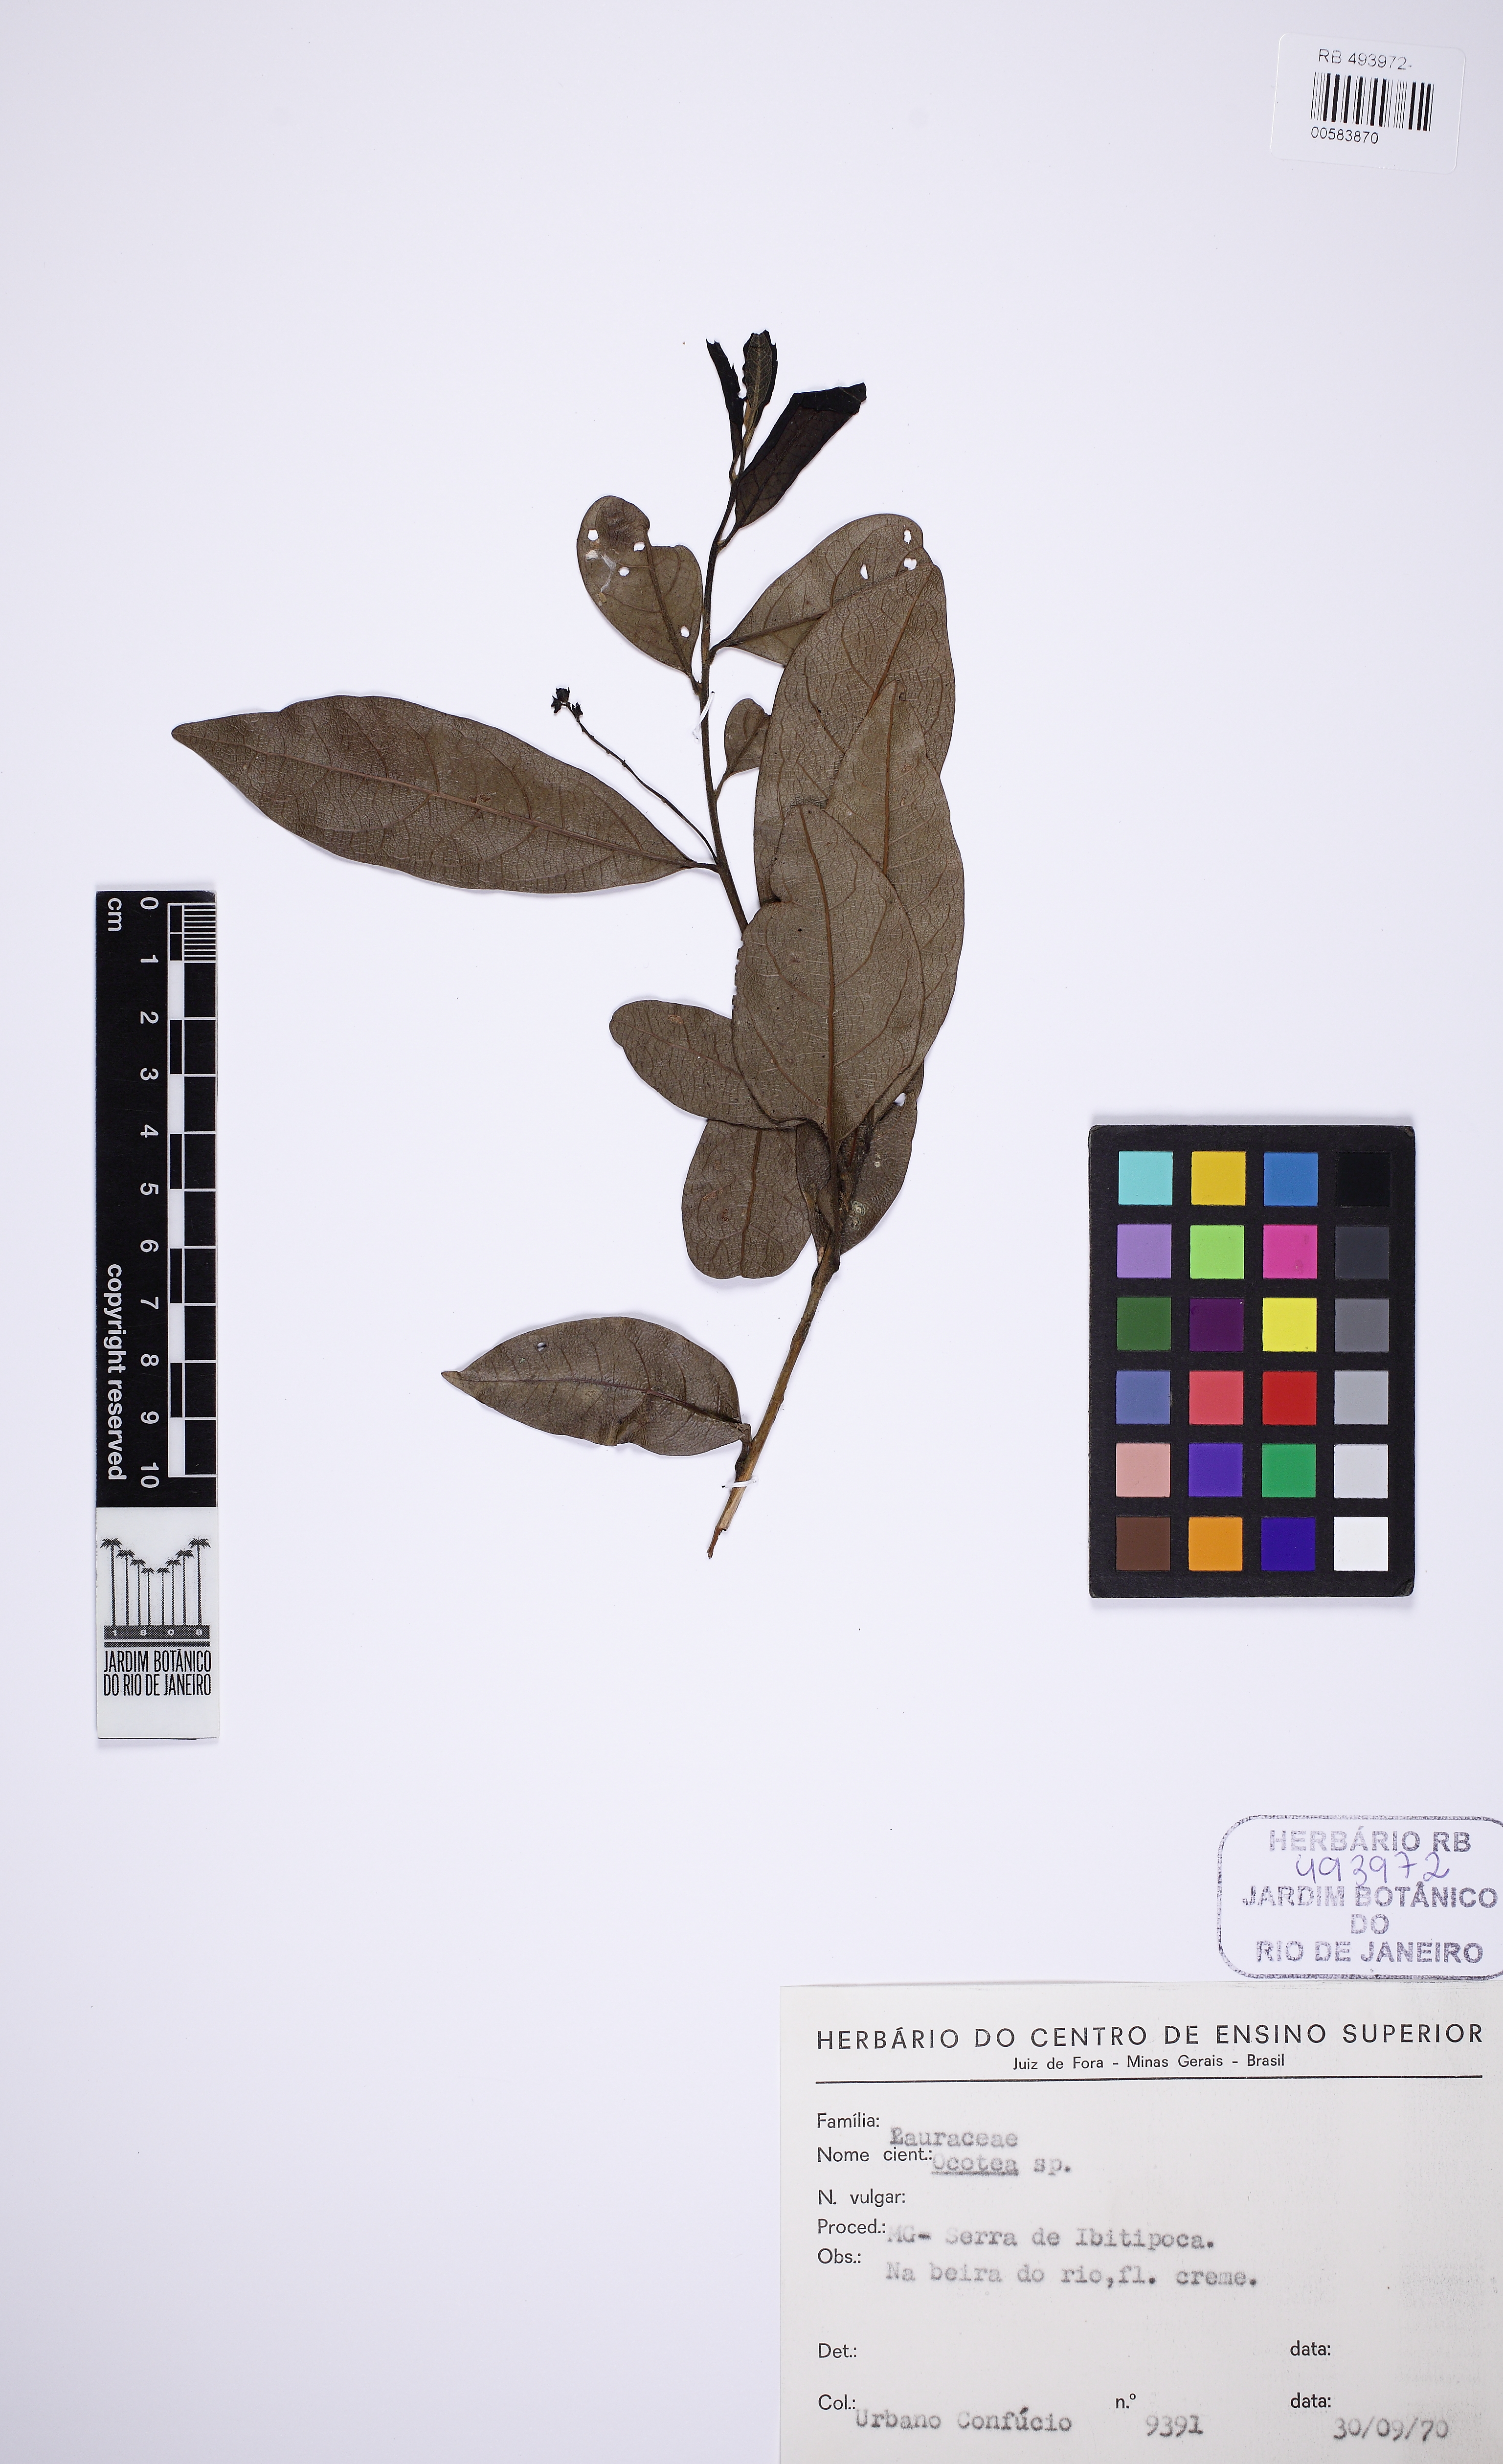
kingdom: Plantae
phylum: Tracheophyta
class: Magnoliopsida
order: Laurales
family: Lauraceae
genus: Ocotea
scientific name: Ocotea puberula
